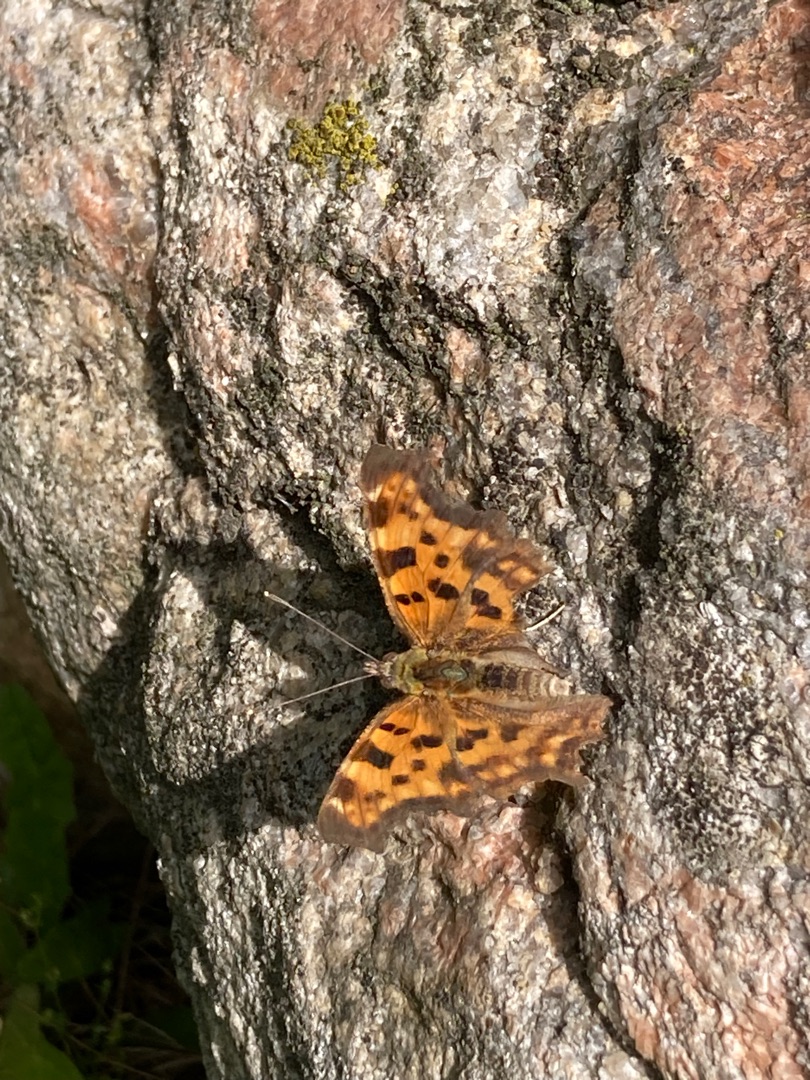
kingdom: Animalia
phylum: Arthropoda
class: Insecta
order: Lepidoptera
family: Nymphalidae
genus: Polygonia
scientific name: Polygonia c-album
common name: Det hvide C
